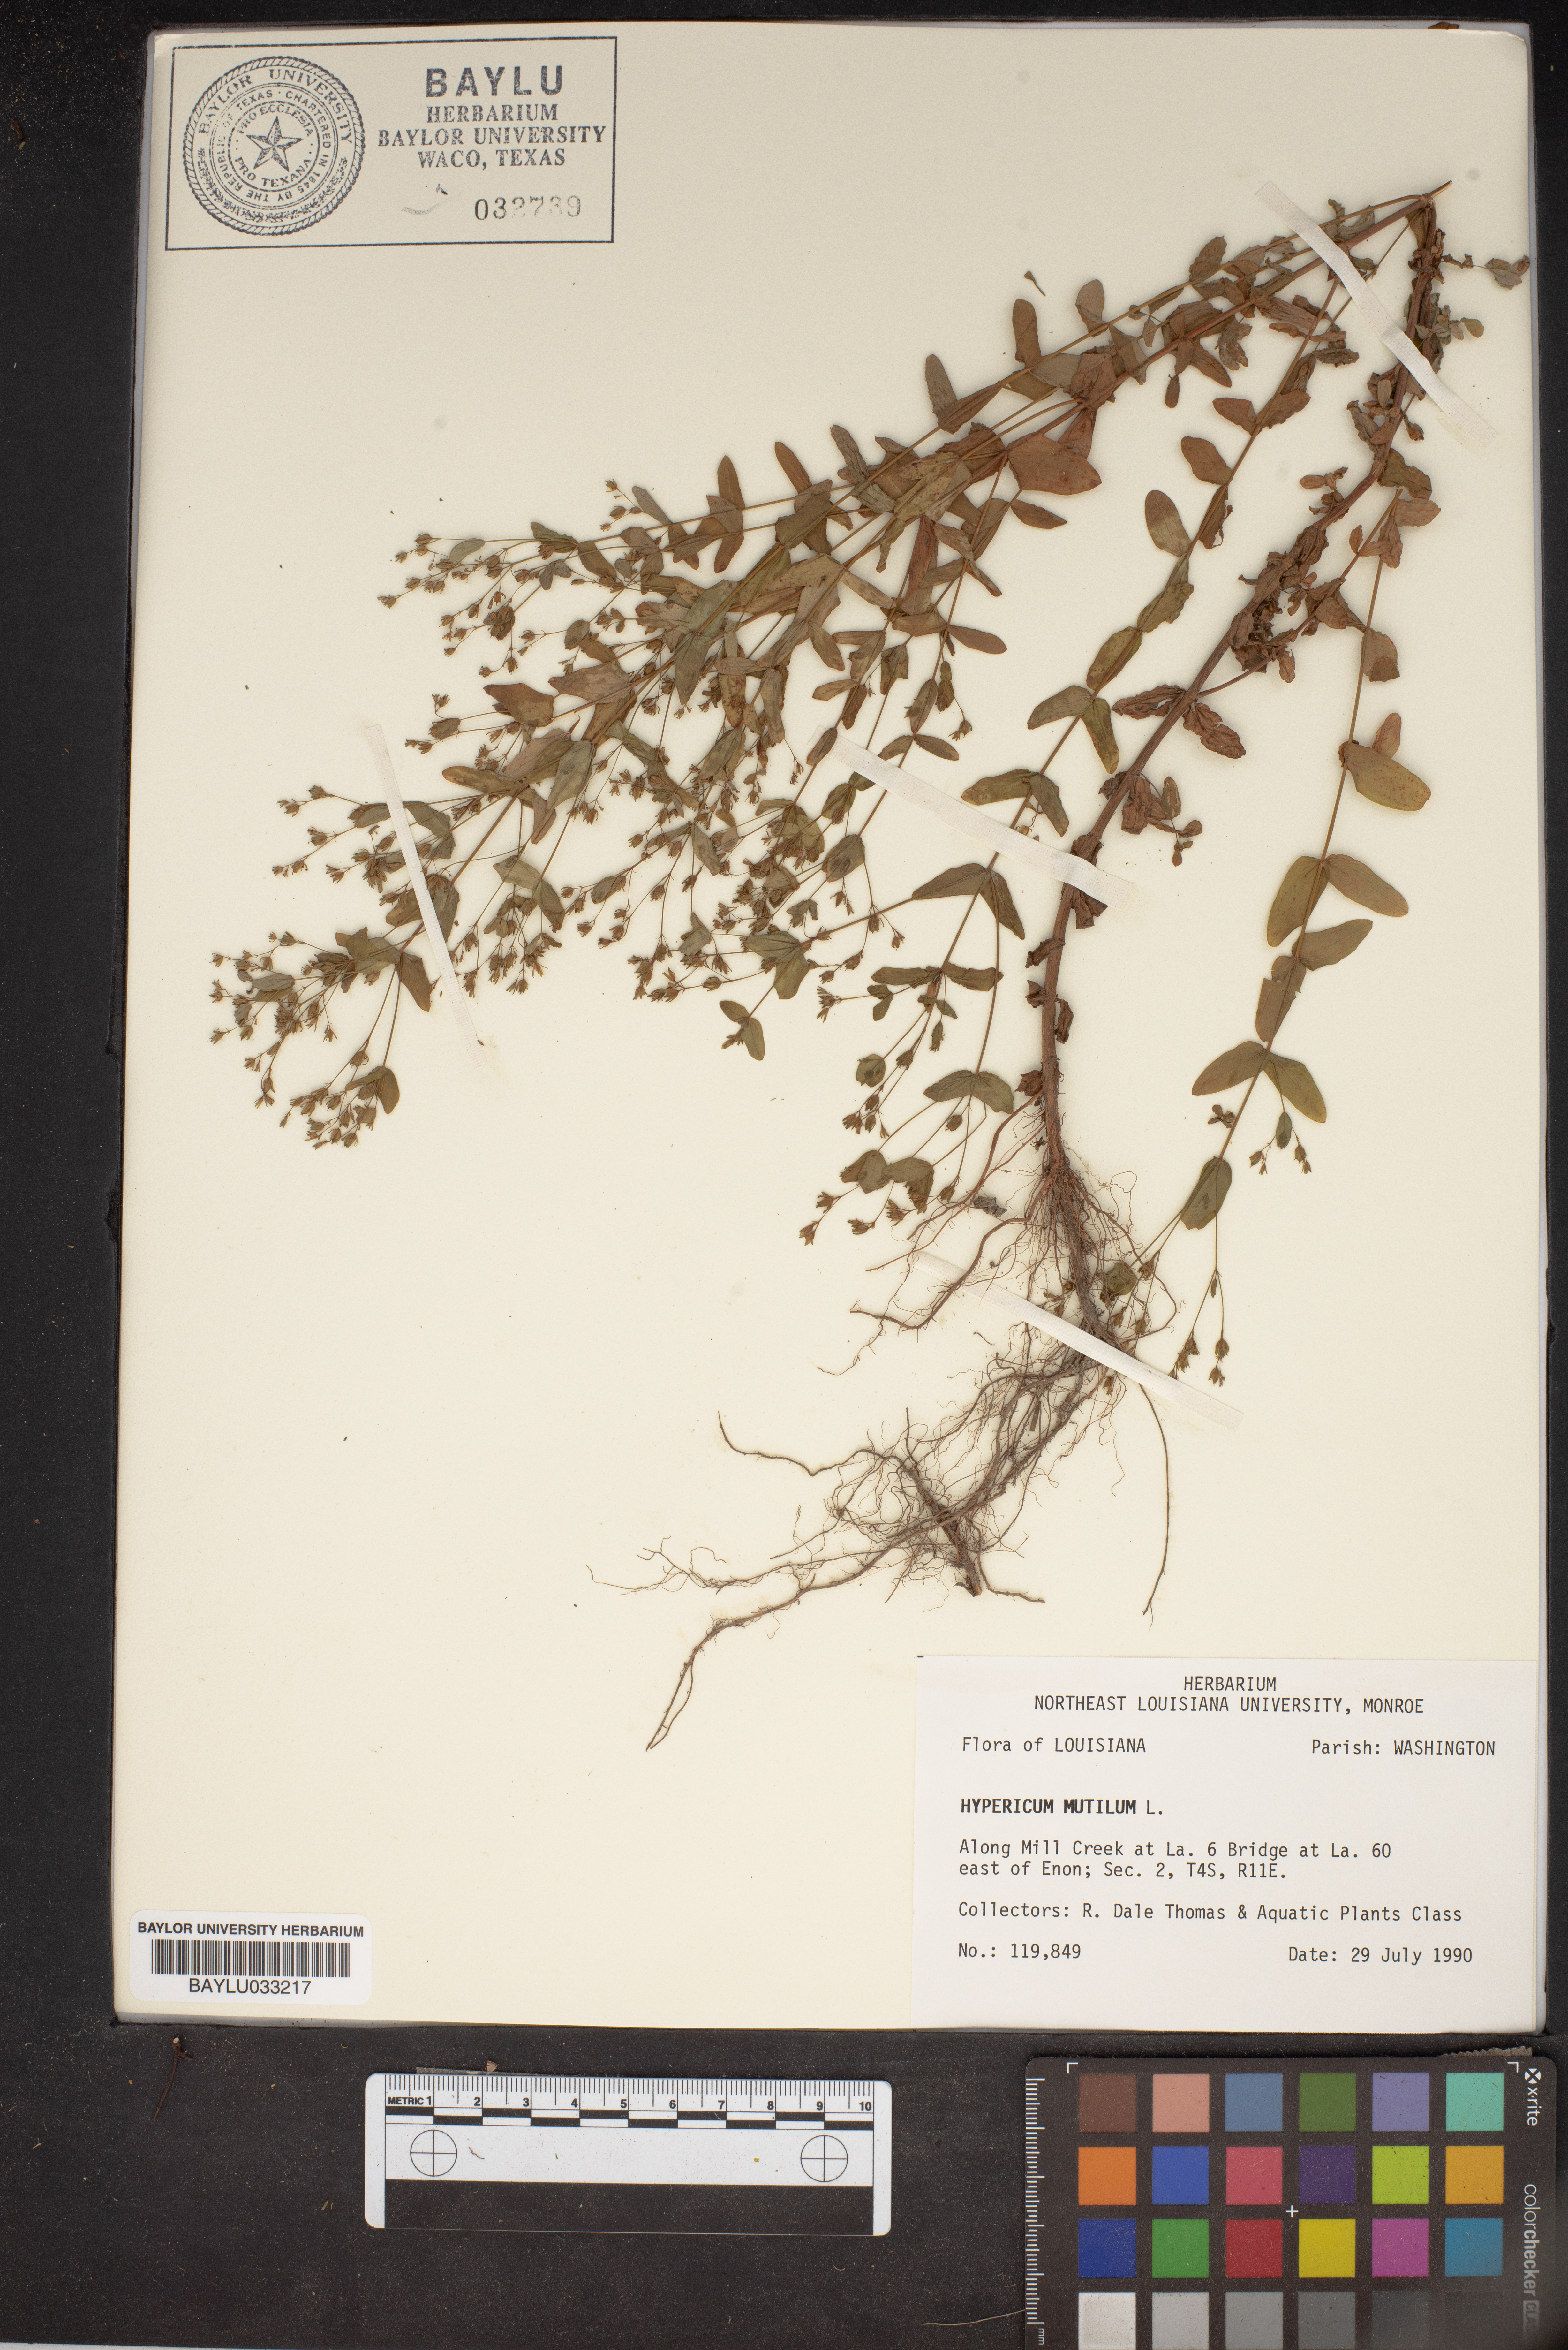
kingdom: Plantae
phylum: Tracheophyta
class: Magnoliopsida
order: Malpighiales
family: Hypericaceae
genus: Hypericum
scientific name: Hypericum mutilum
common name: Dwarf st. john's-wort
